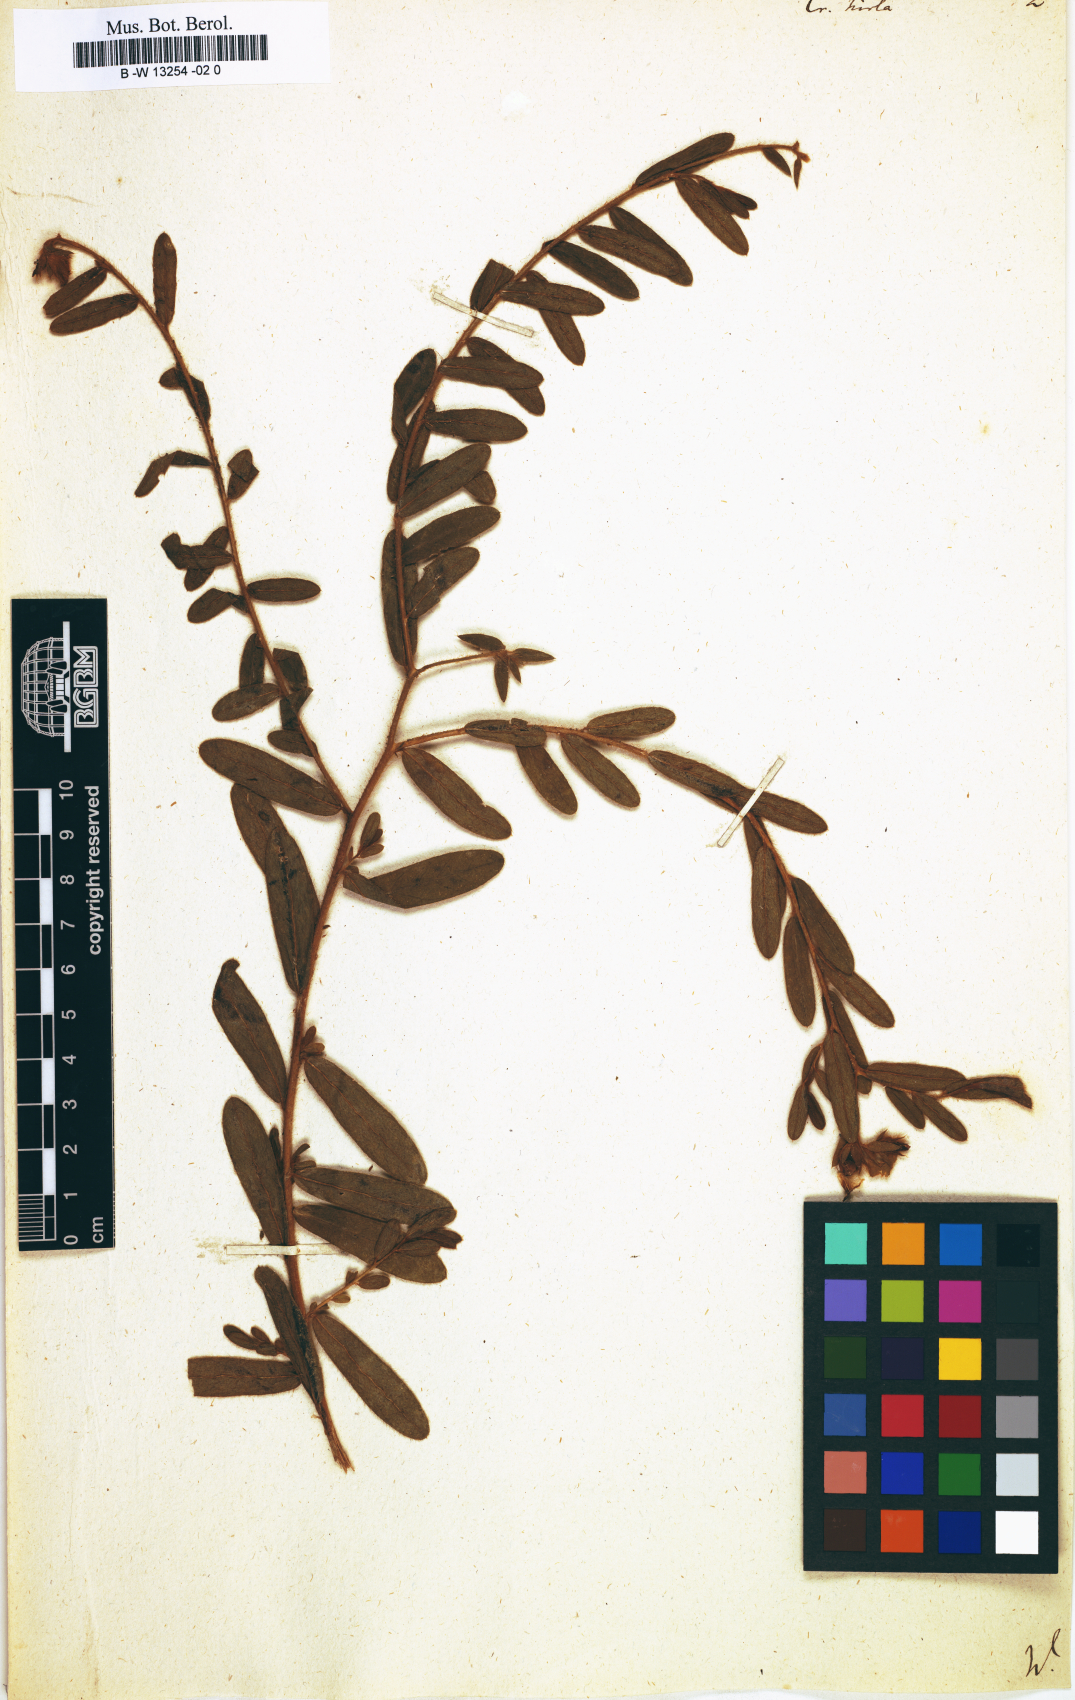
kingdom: Plantae
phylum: Tracheophyta
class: Magnoliopsida
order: Fabales
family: Fabaceae
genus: Crotalaria
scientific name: Crotalaria hirta
